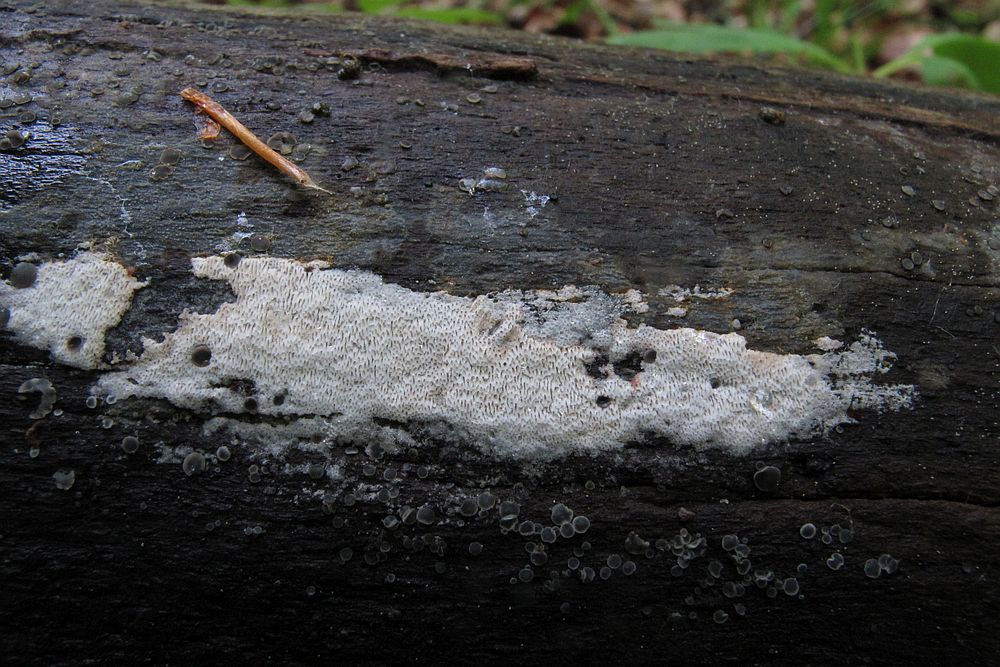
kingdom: Fungi
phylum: Basidiomycota
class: Agaricomycetes
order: Polyporales
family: Irpicaceae
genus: Ceriporia
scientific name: Ceriporia viridans
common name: foranderlig voksporesvamp
